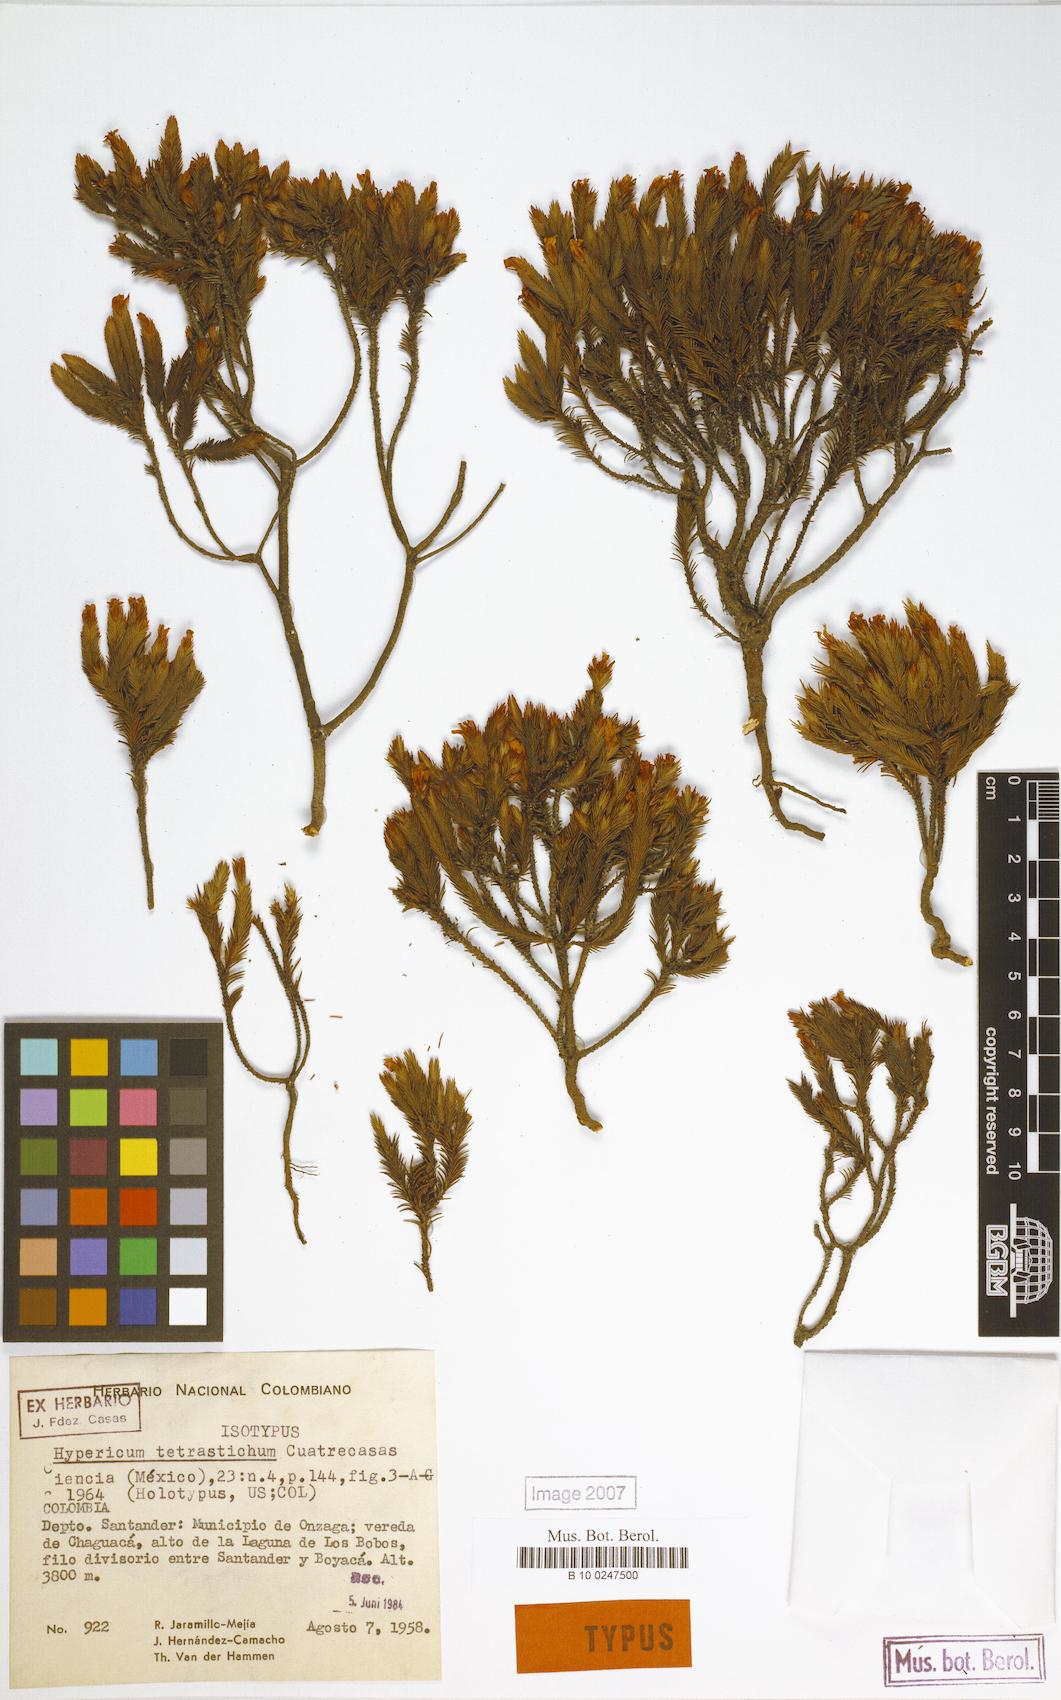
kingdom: Plantae
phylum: Tracheophyta
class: Magnoliopsida
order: Malpighiales
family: Hypericaceae
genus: Hypericum
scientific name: Hypericum tetrastichum
